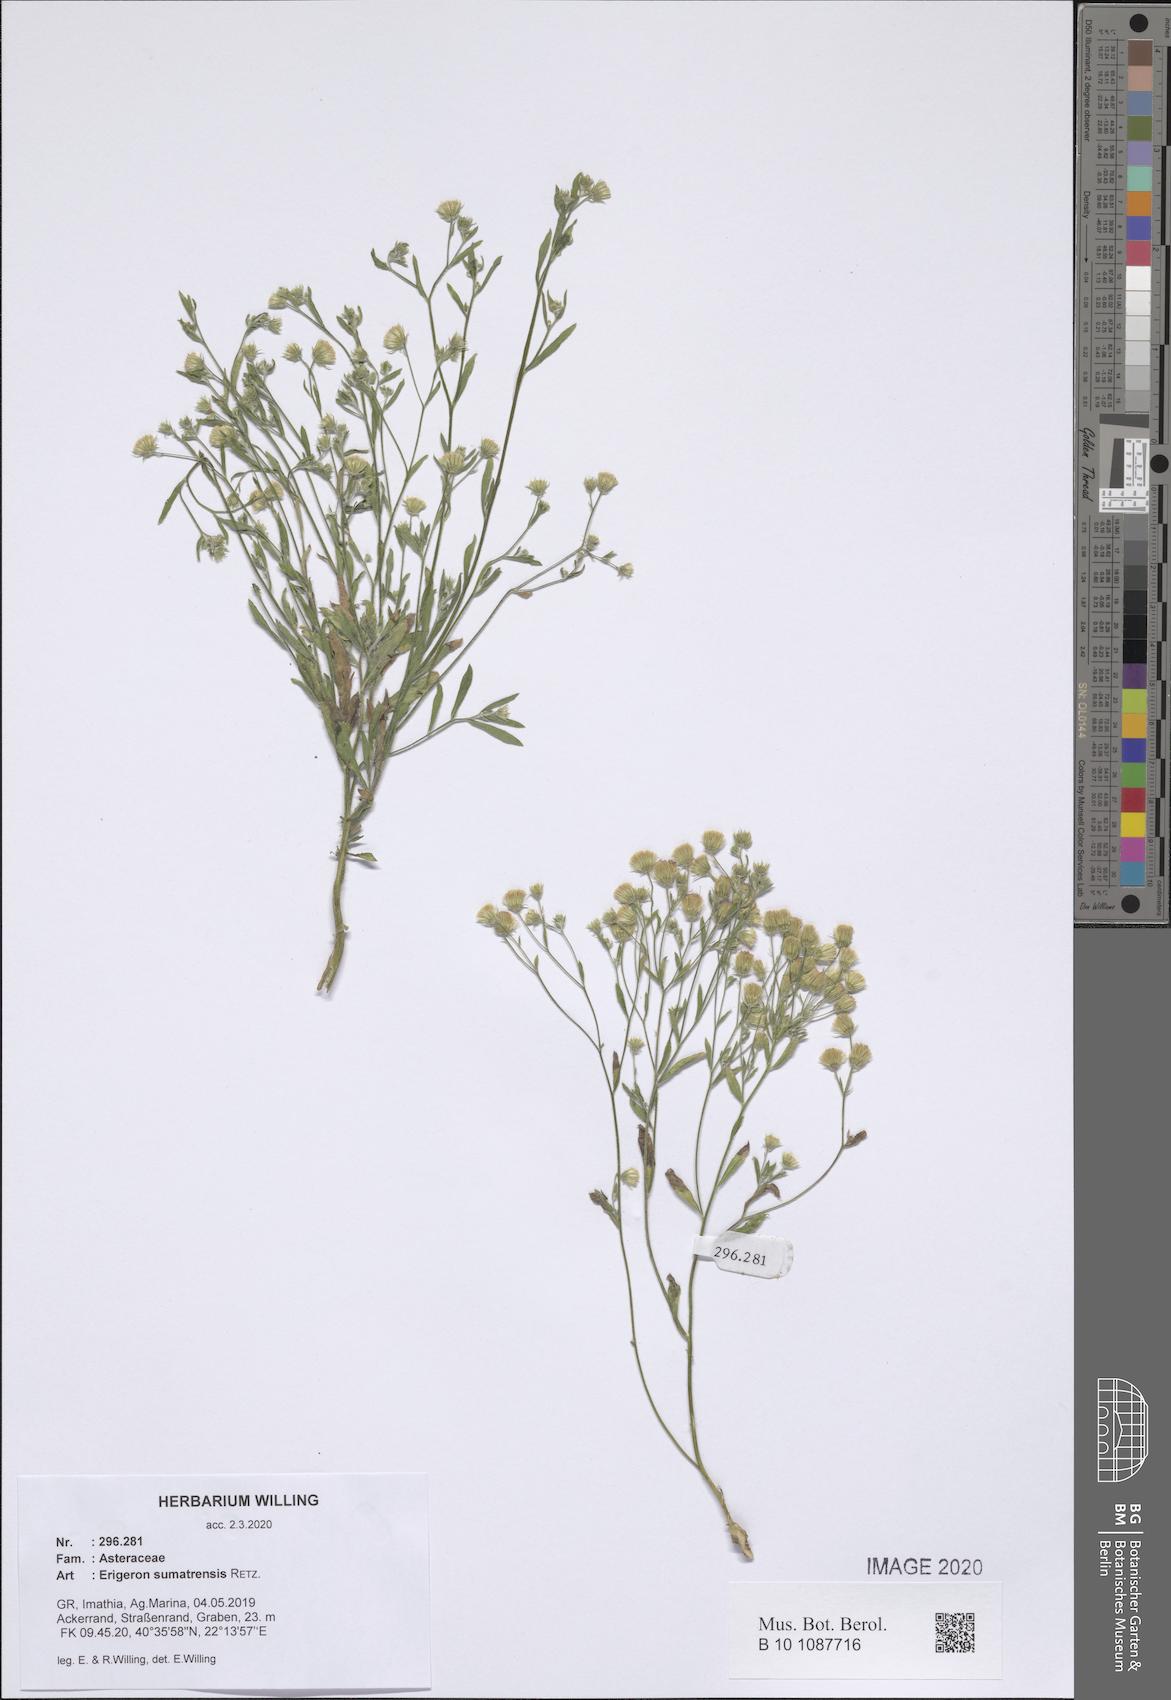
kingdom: Plantae
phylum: Tracheophyta
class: Magnoliopsida
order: Asterales
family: Asteraceae
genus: Erigeron
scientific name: Erigeron sumatrensis
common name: Daisy
